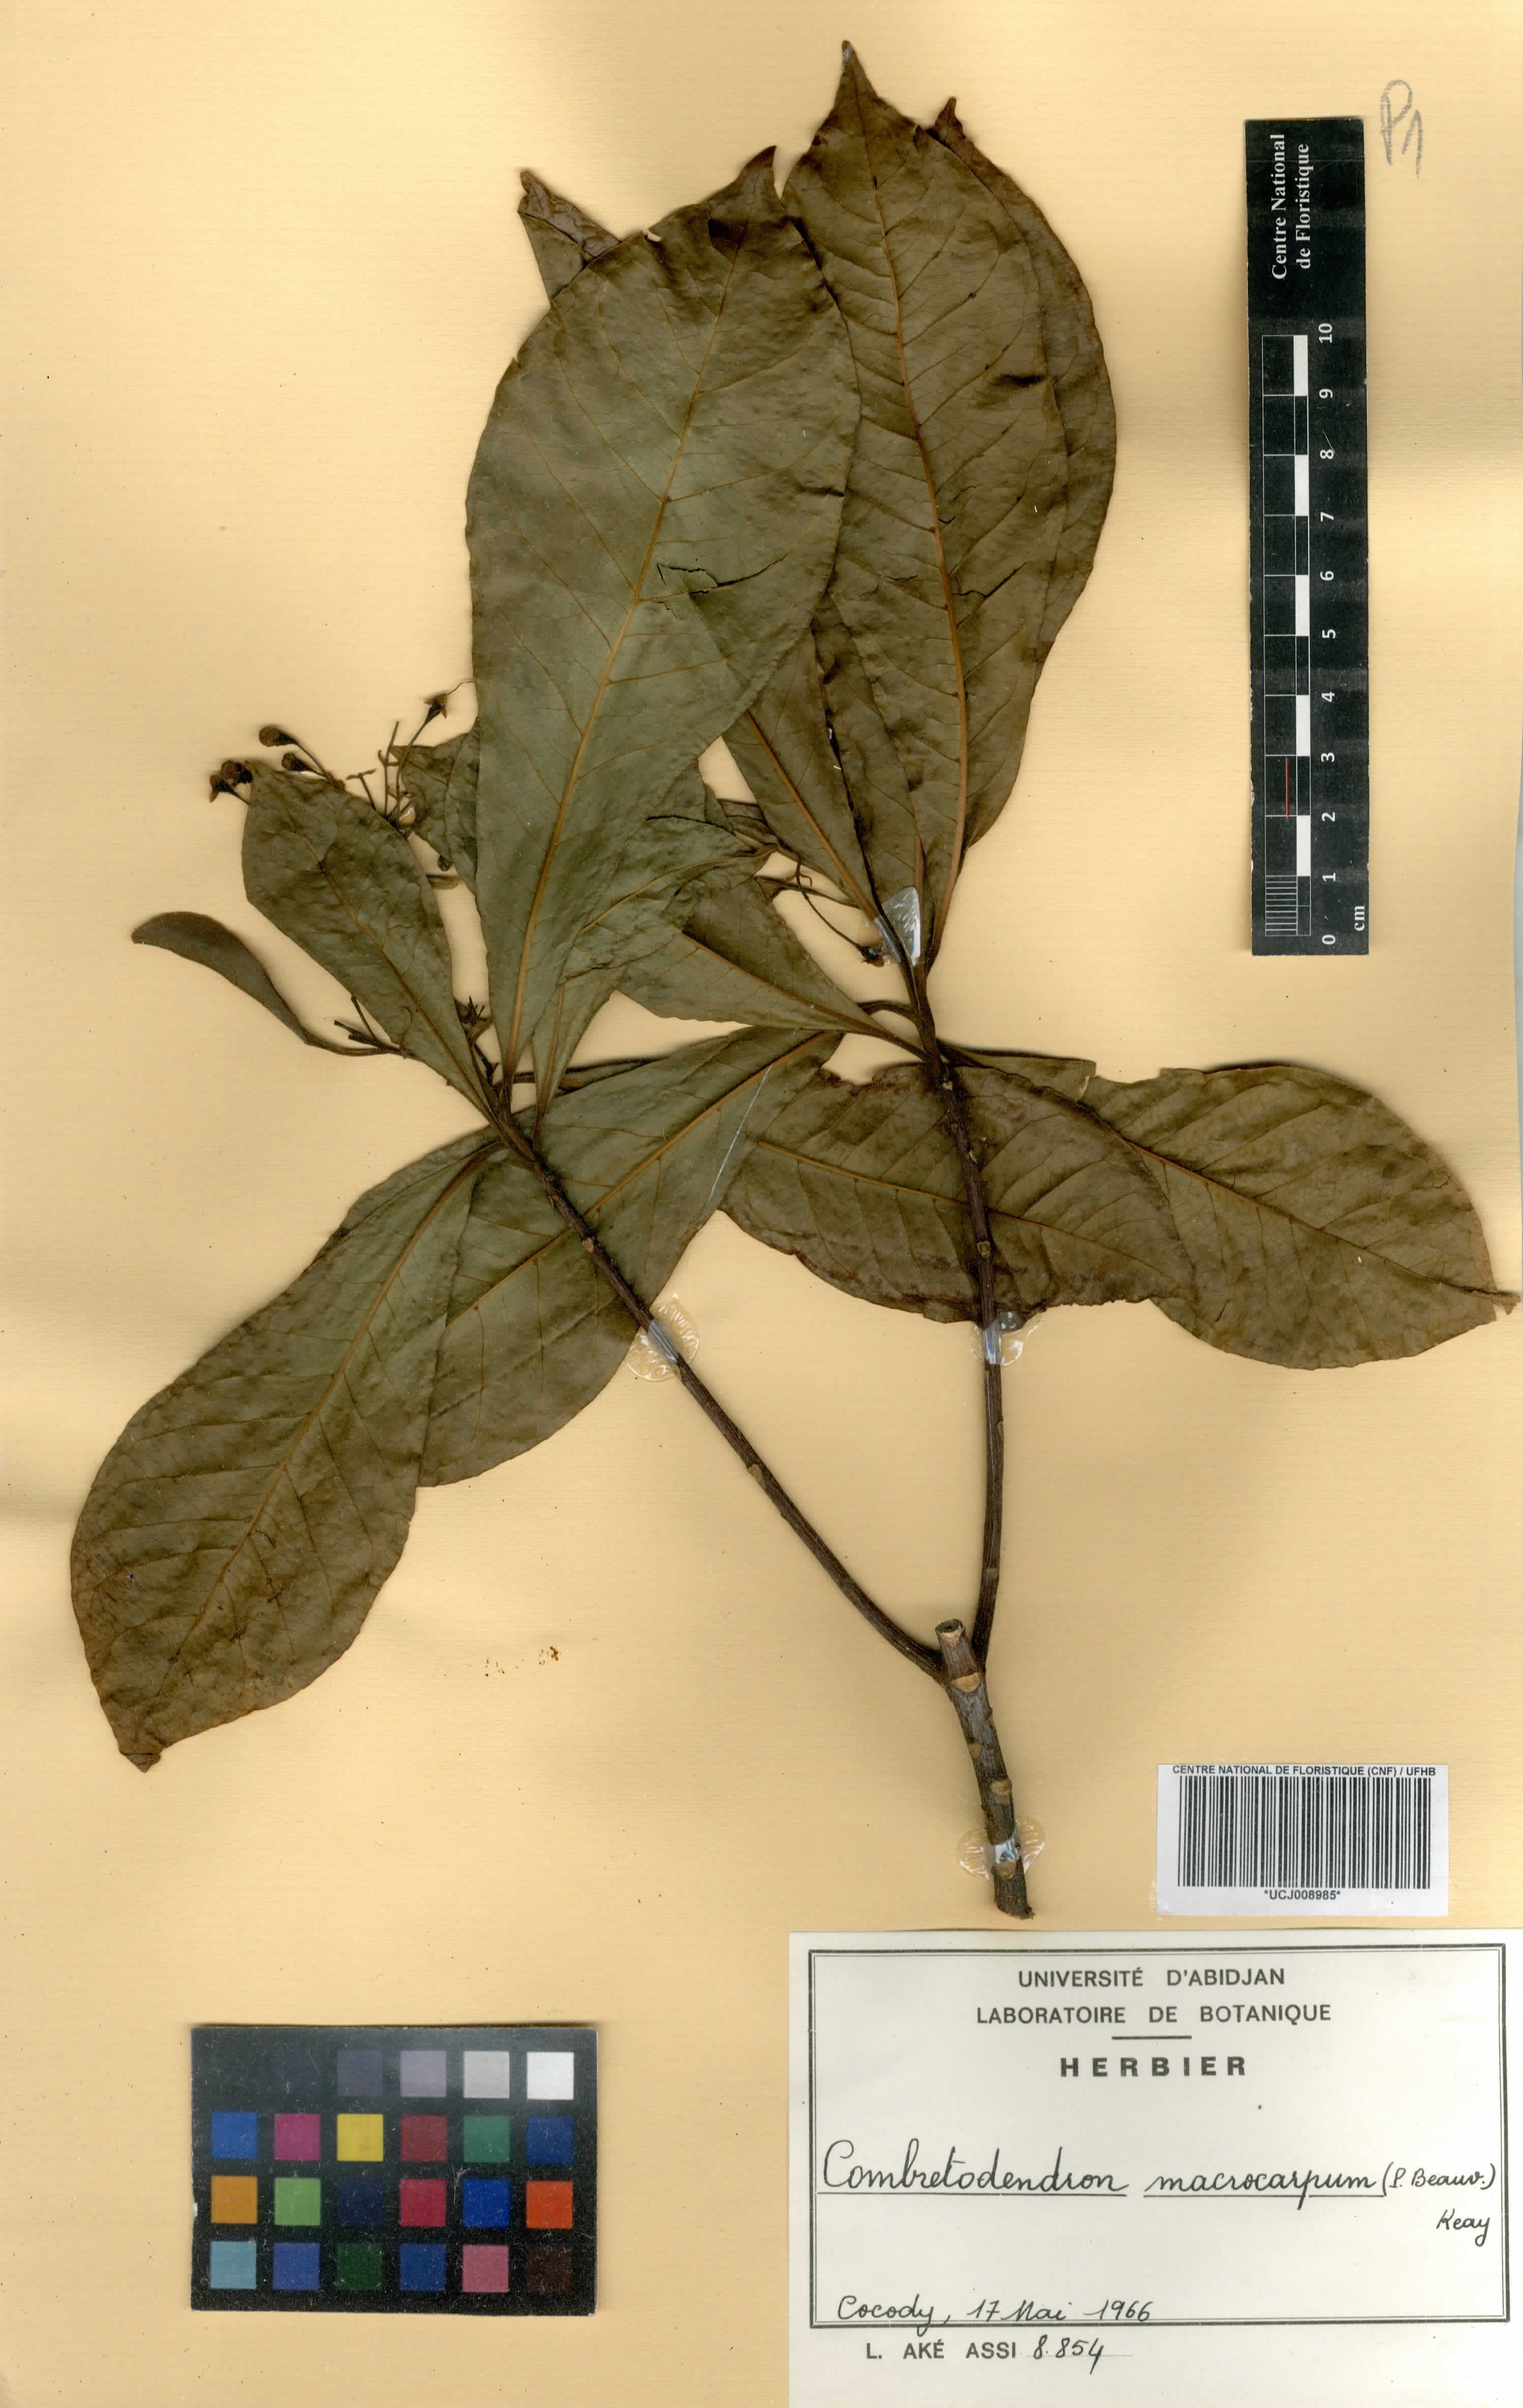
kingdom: Plantae
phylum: Tracheophyta
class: Magnoliopsida
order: Ericales
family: Lecythidaceae
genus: Petersianthus
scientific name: Petersianthus macrocarpus
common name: Essia
